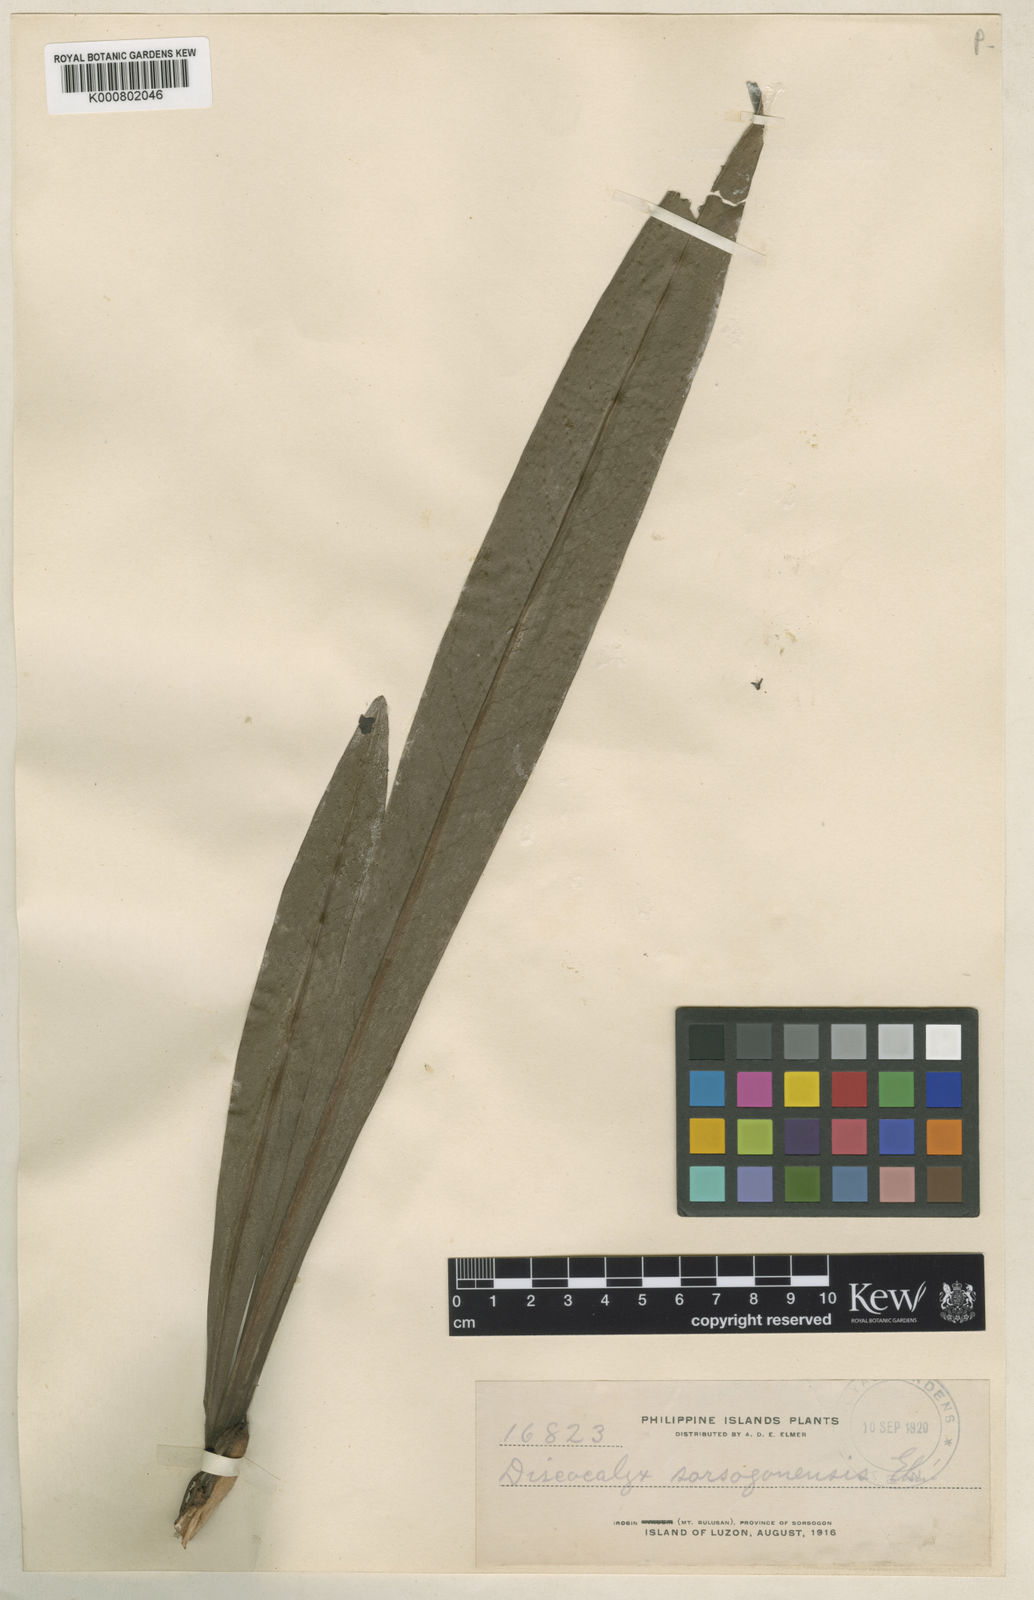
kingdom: Plantae
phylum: Tracheophyta
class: Magnoliopsida
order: Ericales
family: Primulaceae
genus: Discocalyx
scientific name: Discocalyx
